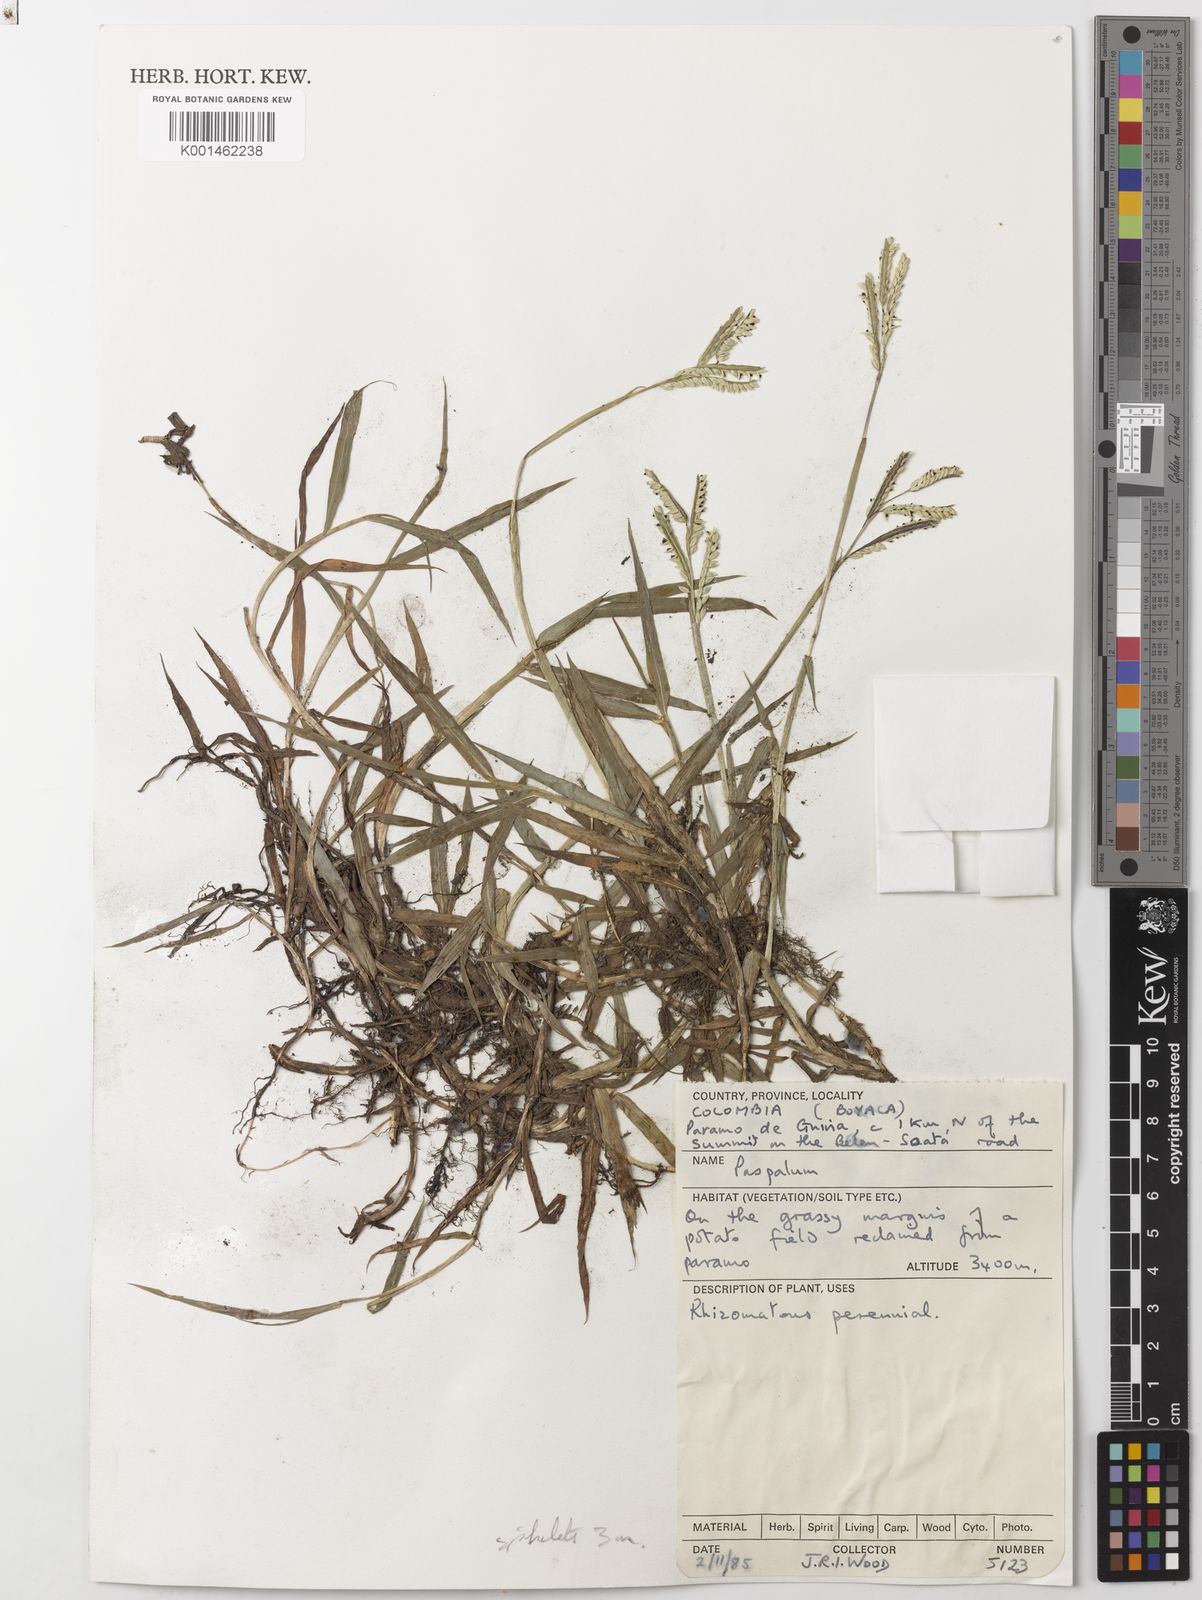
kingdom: Plantae
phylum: Tracheophyta
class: Liliopsida
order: Poales
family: Poaceae
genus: Paspalum
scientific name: Paspalum trianae
